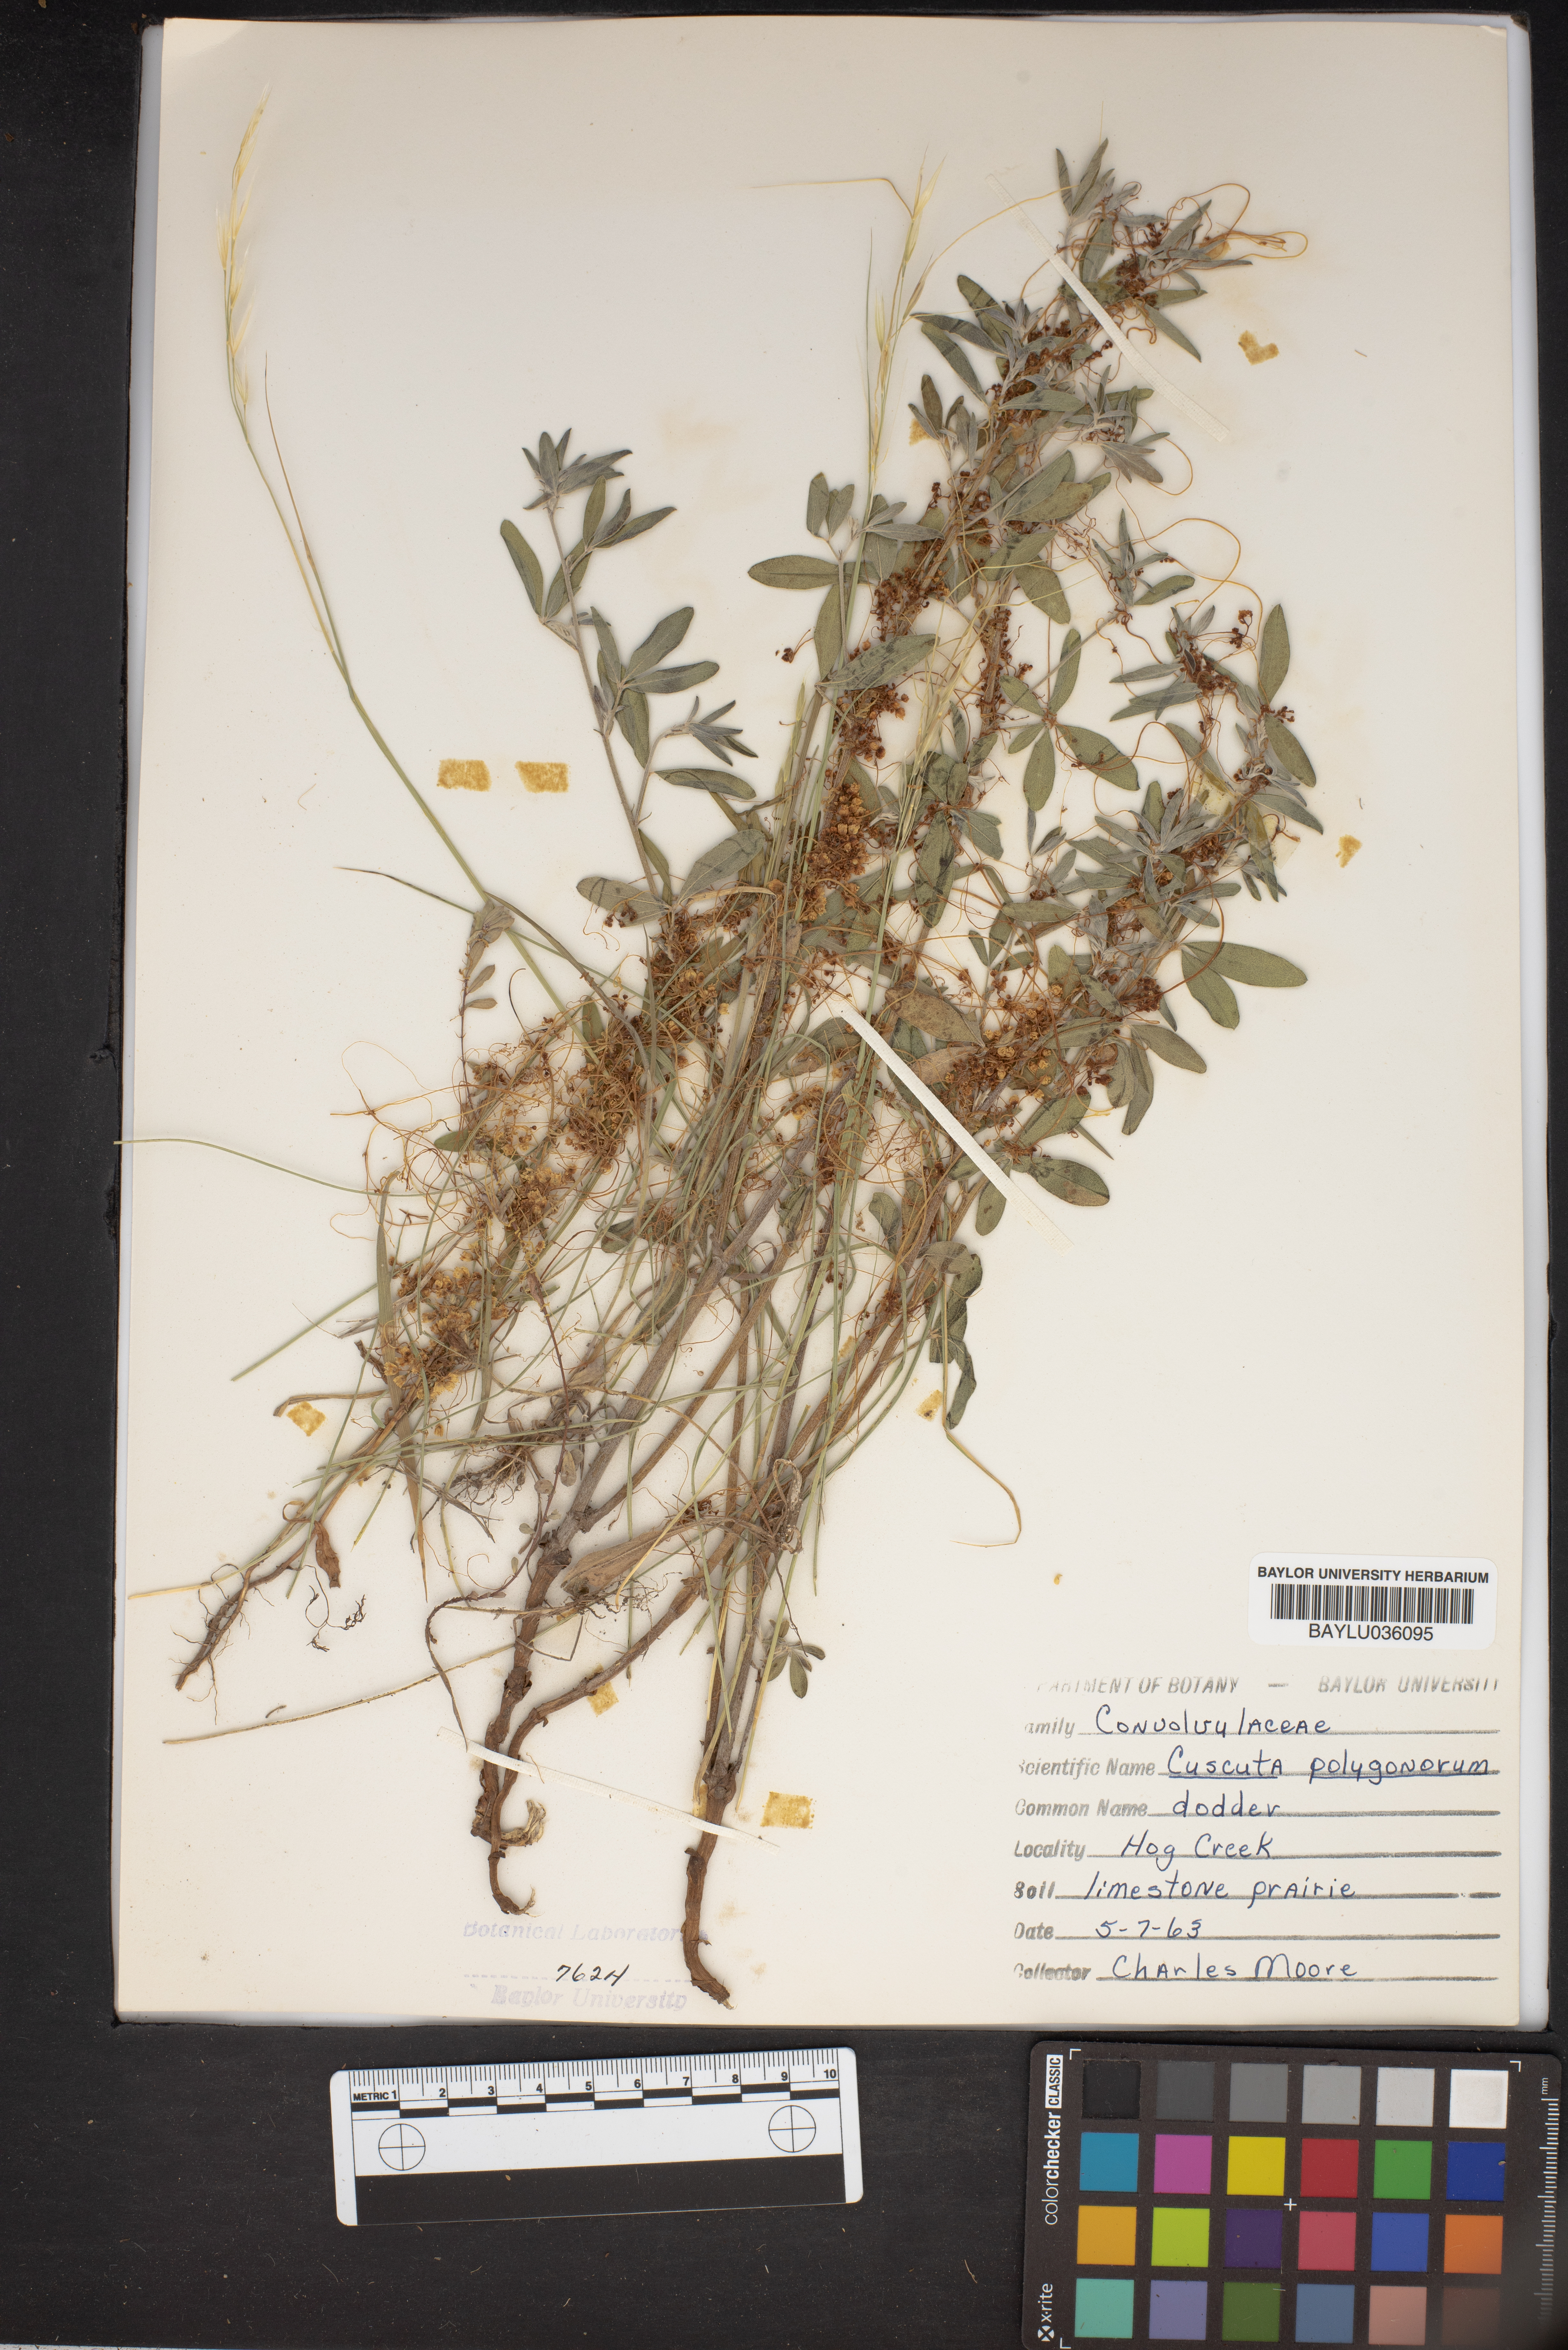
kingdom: Plantae
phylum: Tracheophyta
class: Magnoliopsida
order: Solanales
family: Convolvulaceae
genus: Cuscuta
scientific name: Cuscuta polygonorum
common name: Polygonum dodder
